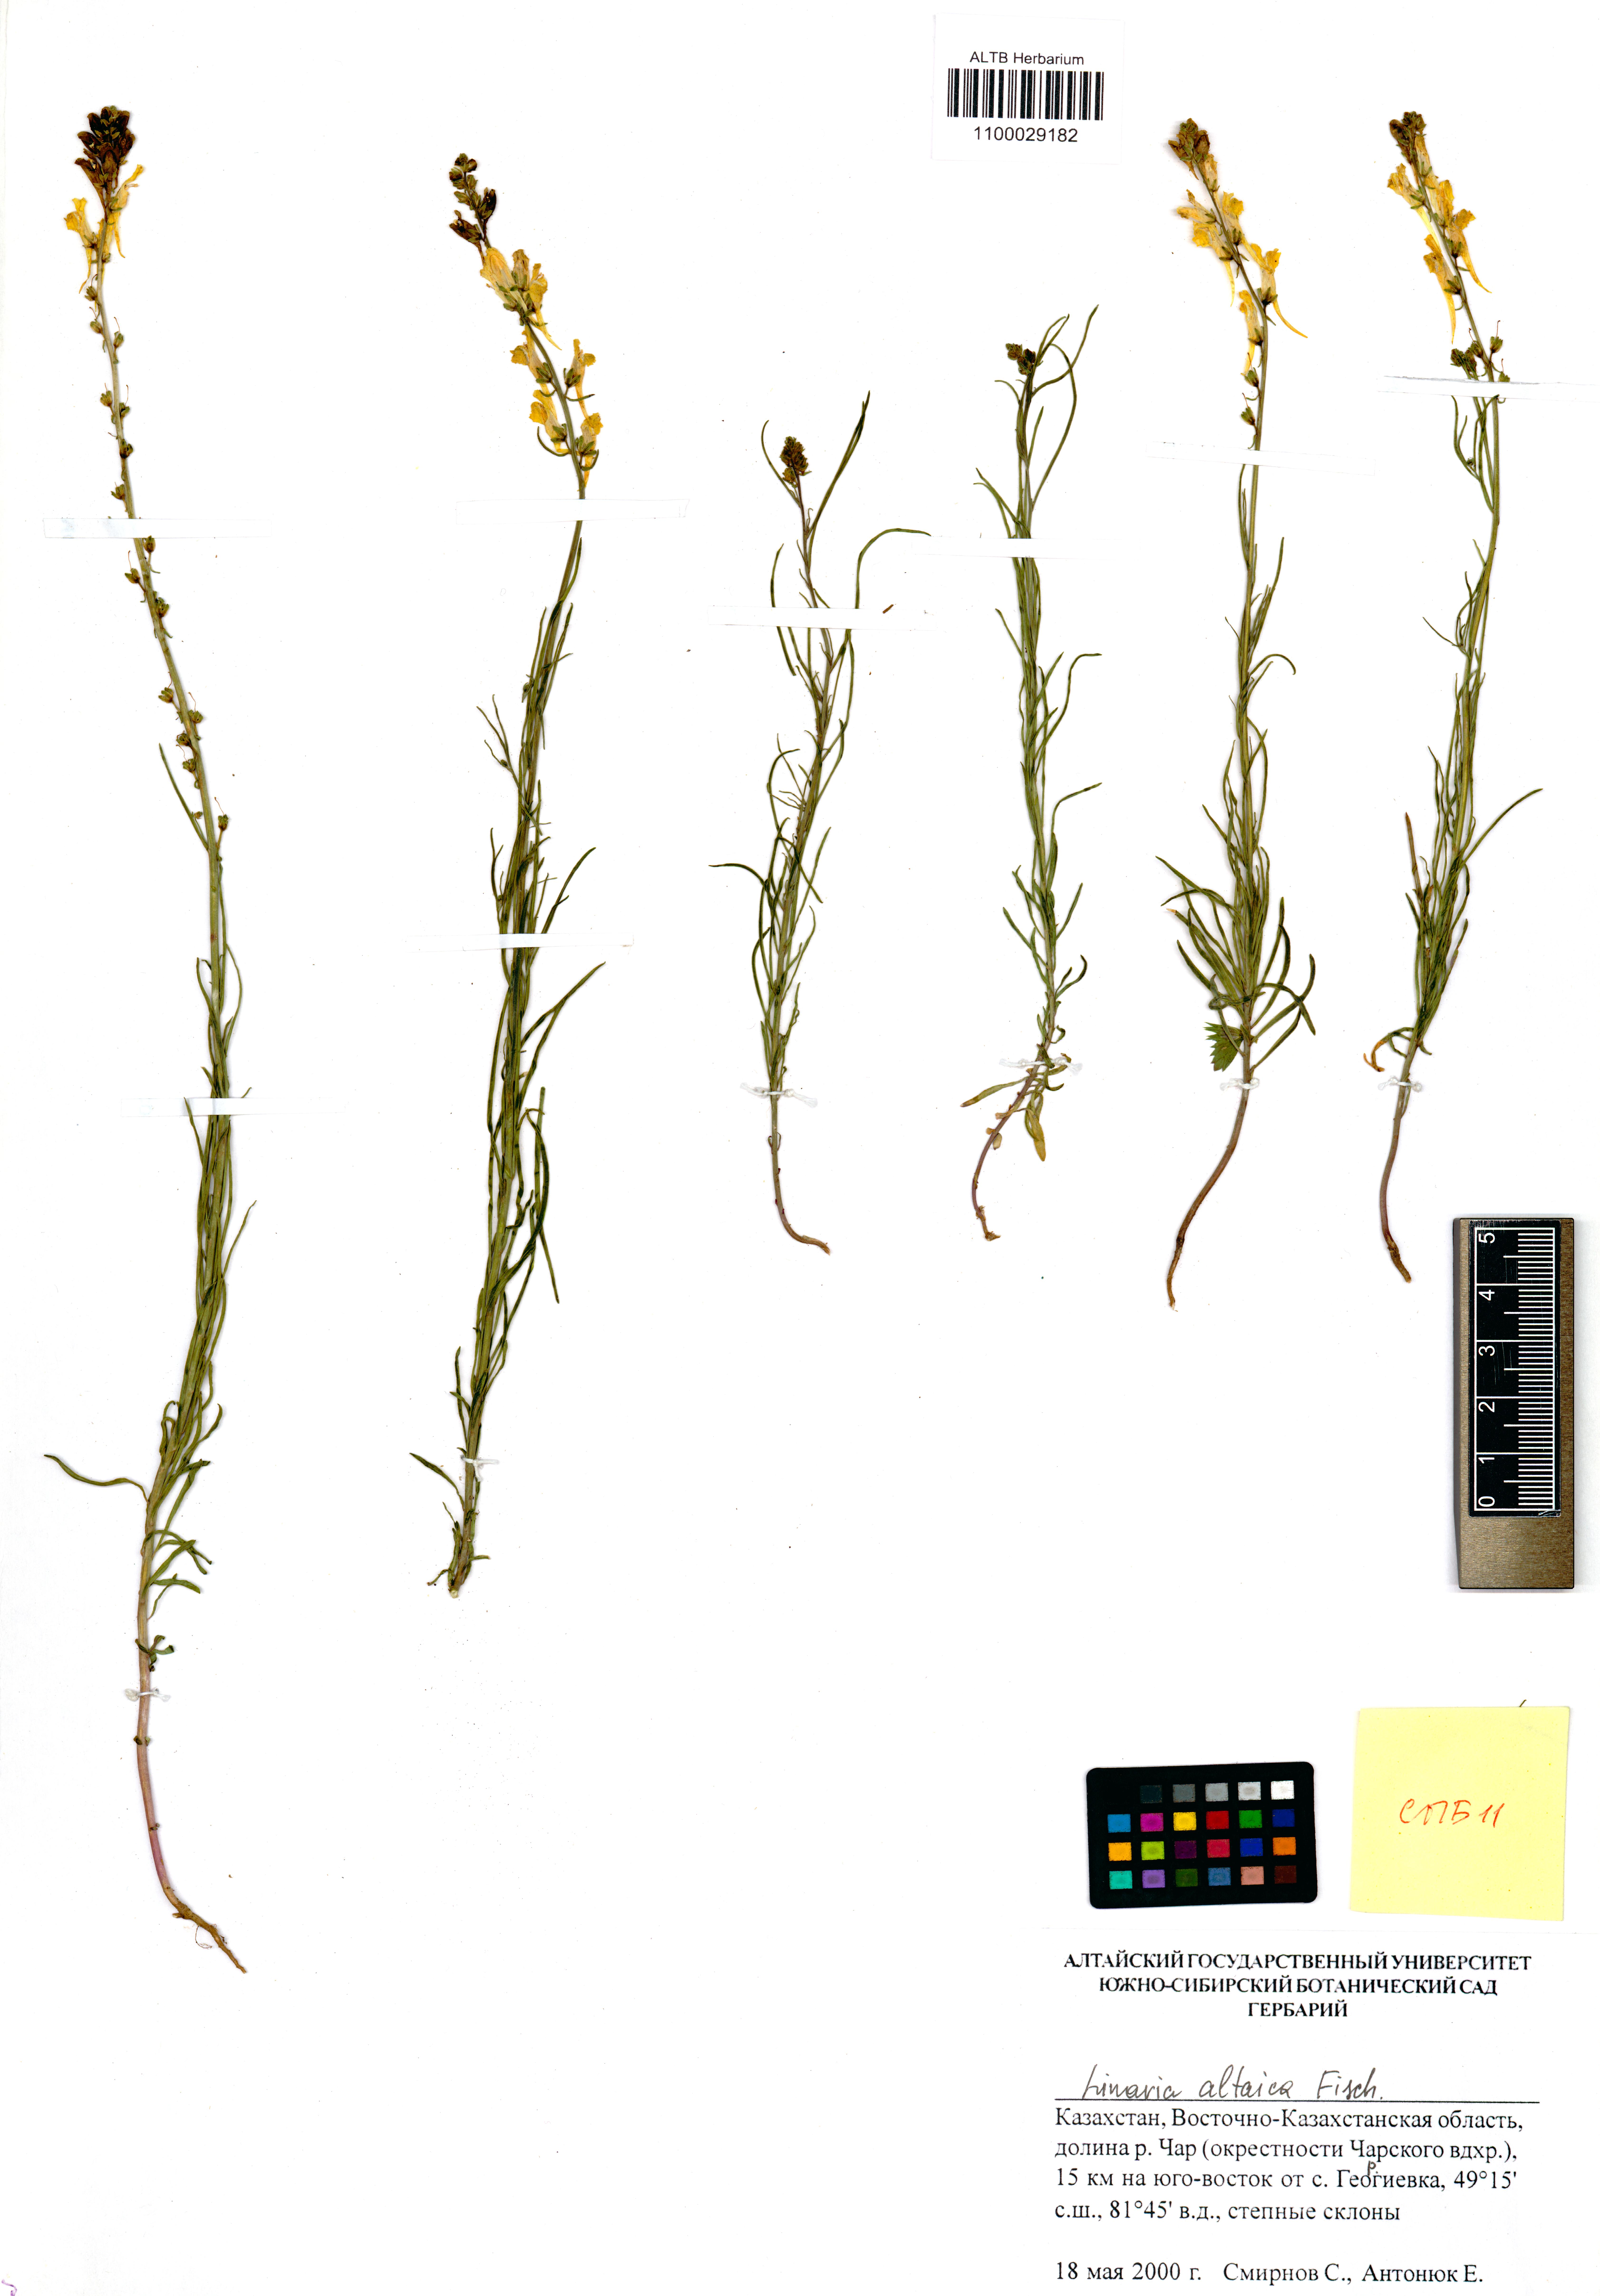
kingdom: Plantae
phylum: Tracheophyta
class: Magnoliopsida
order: Lamiales
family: Plantaginaceae
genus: Linaria
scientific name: Linaria altaica
